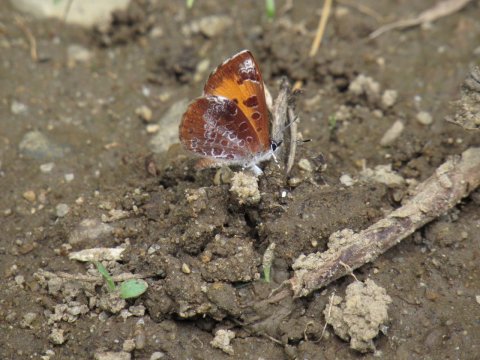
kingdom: Animalia
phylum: Arthropoda
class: Insecta
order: Lepidoptera
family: Lycaenidae
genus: Feniseca
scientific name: Feniseca tarquinius
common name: Harvester
